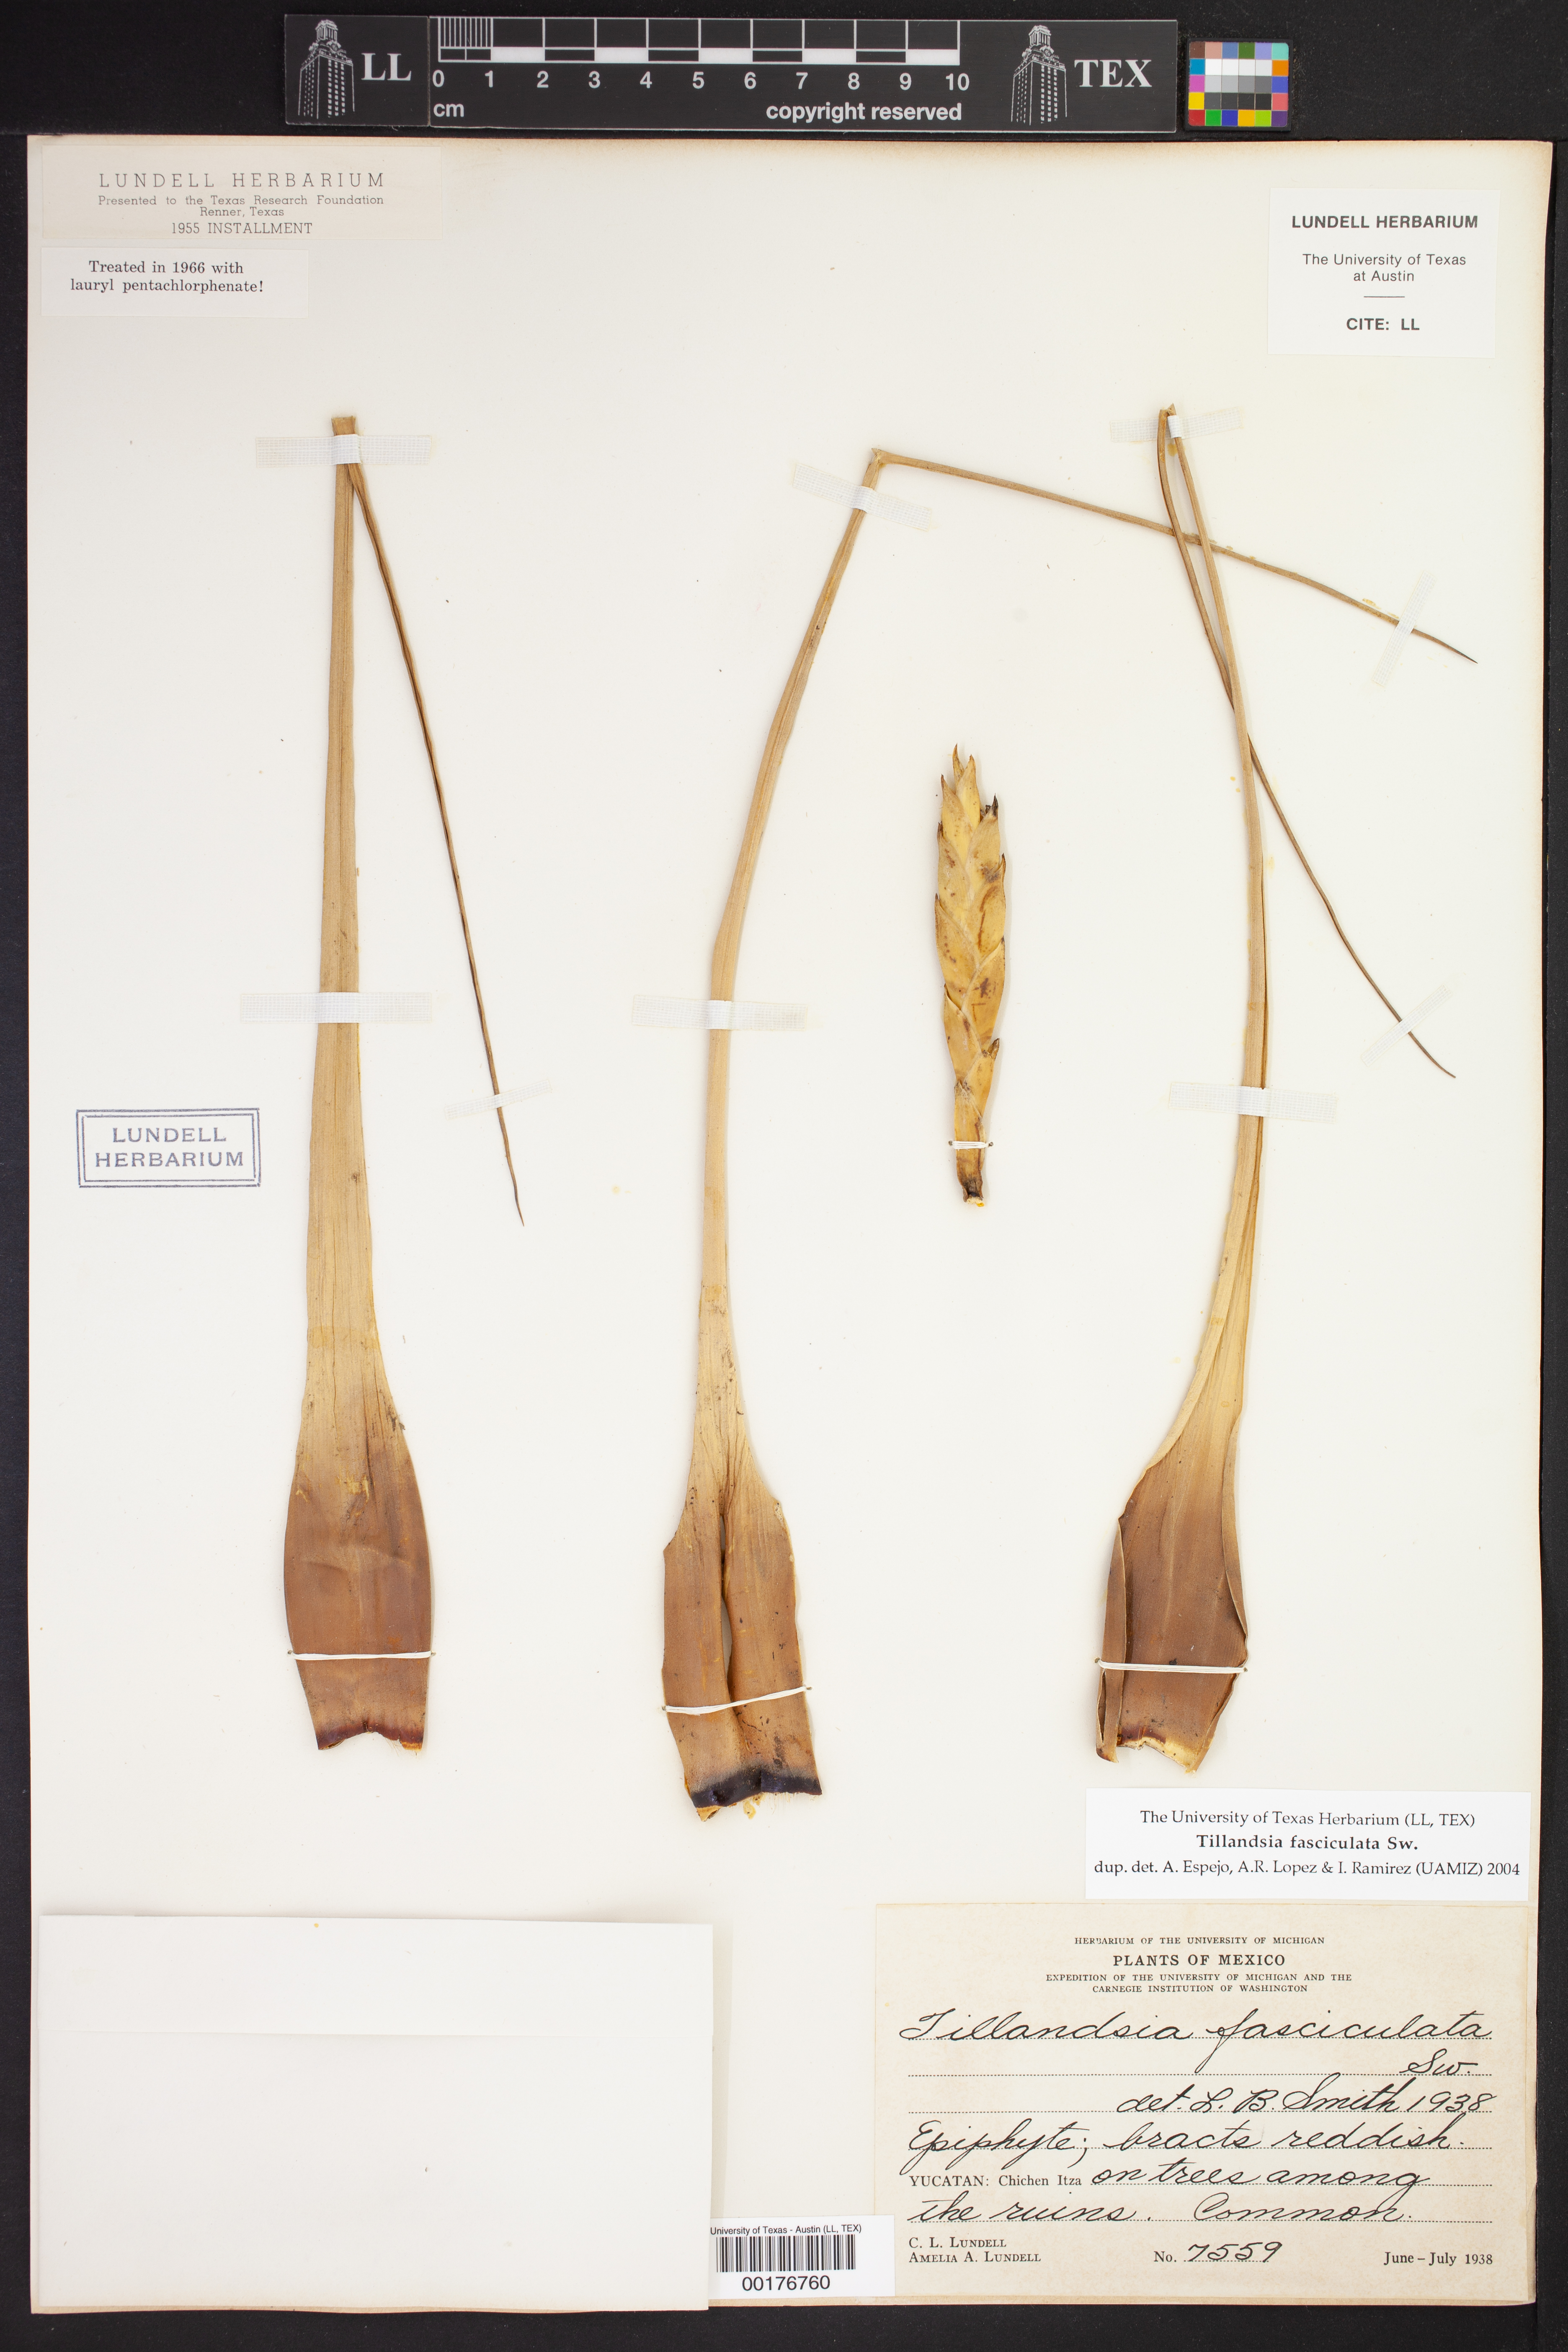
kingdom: Plantae
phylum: Tracheophyta
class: Liliopsida
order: Poales
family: Bromeliaceae
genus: Tillandsia
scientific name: Tillandsia fasciculata
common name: Giant airplant
